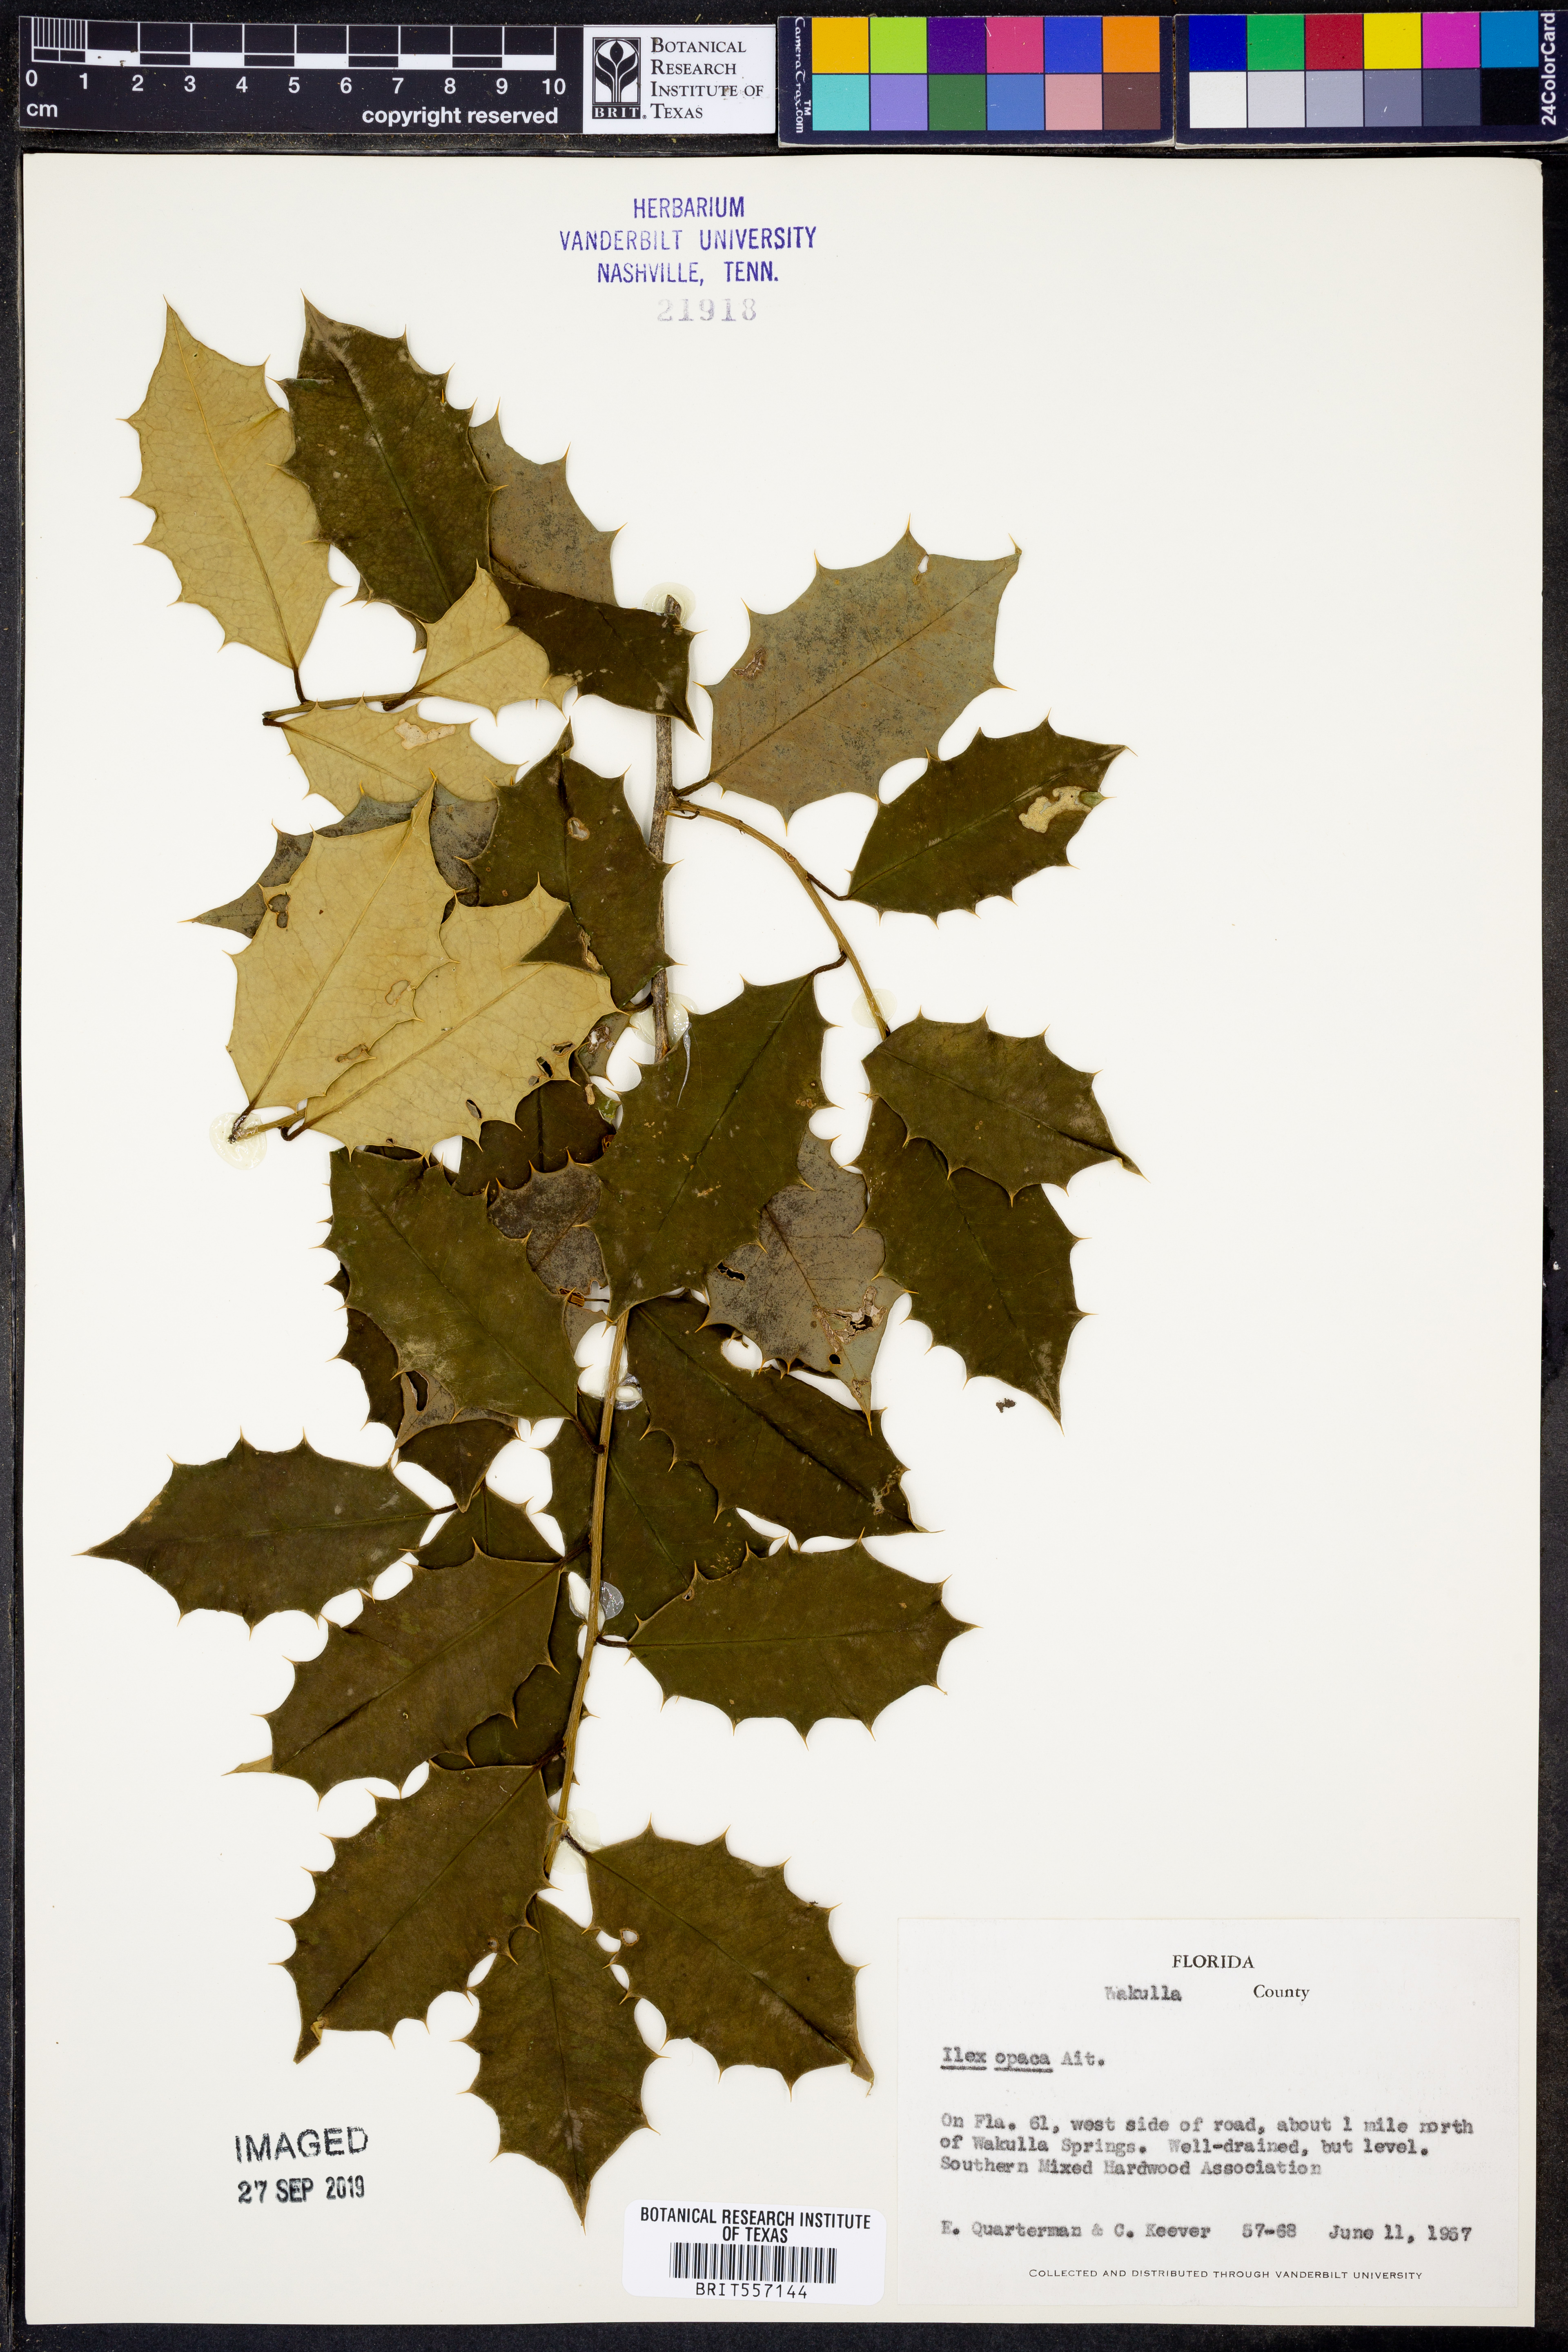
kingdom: Plantae
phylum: Tracheophyta
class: Magnoliopsida
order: Aquifoliales
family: Aquifoliaceae
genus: Ilex
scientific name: Ilex opaca
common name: American holly
